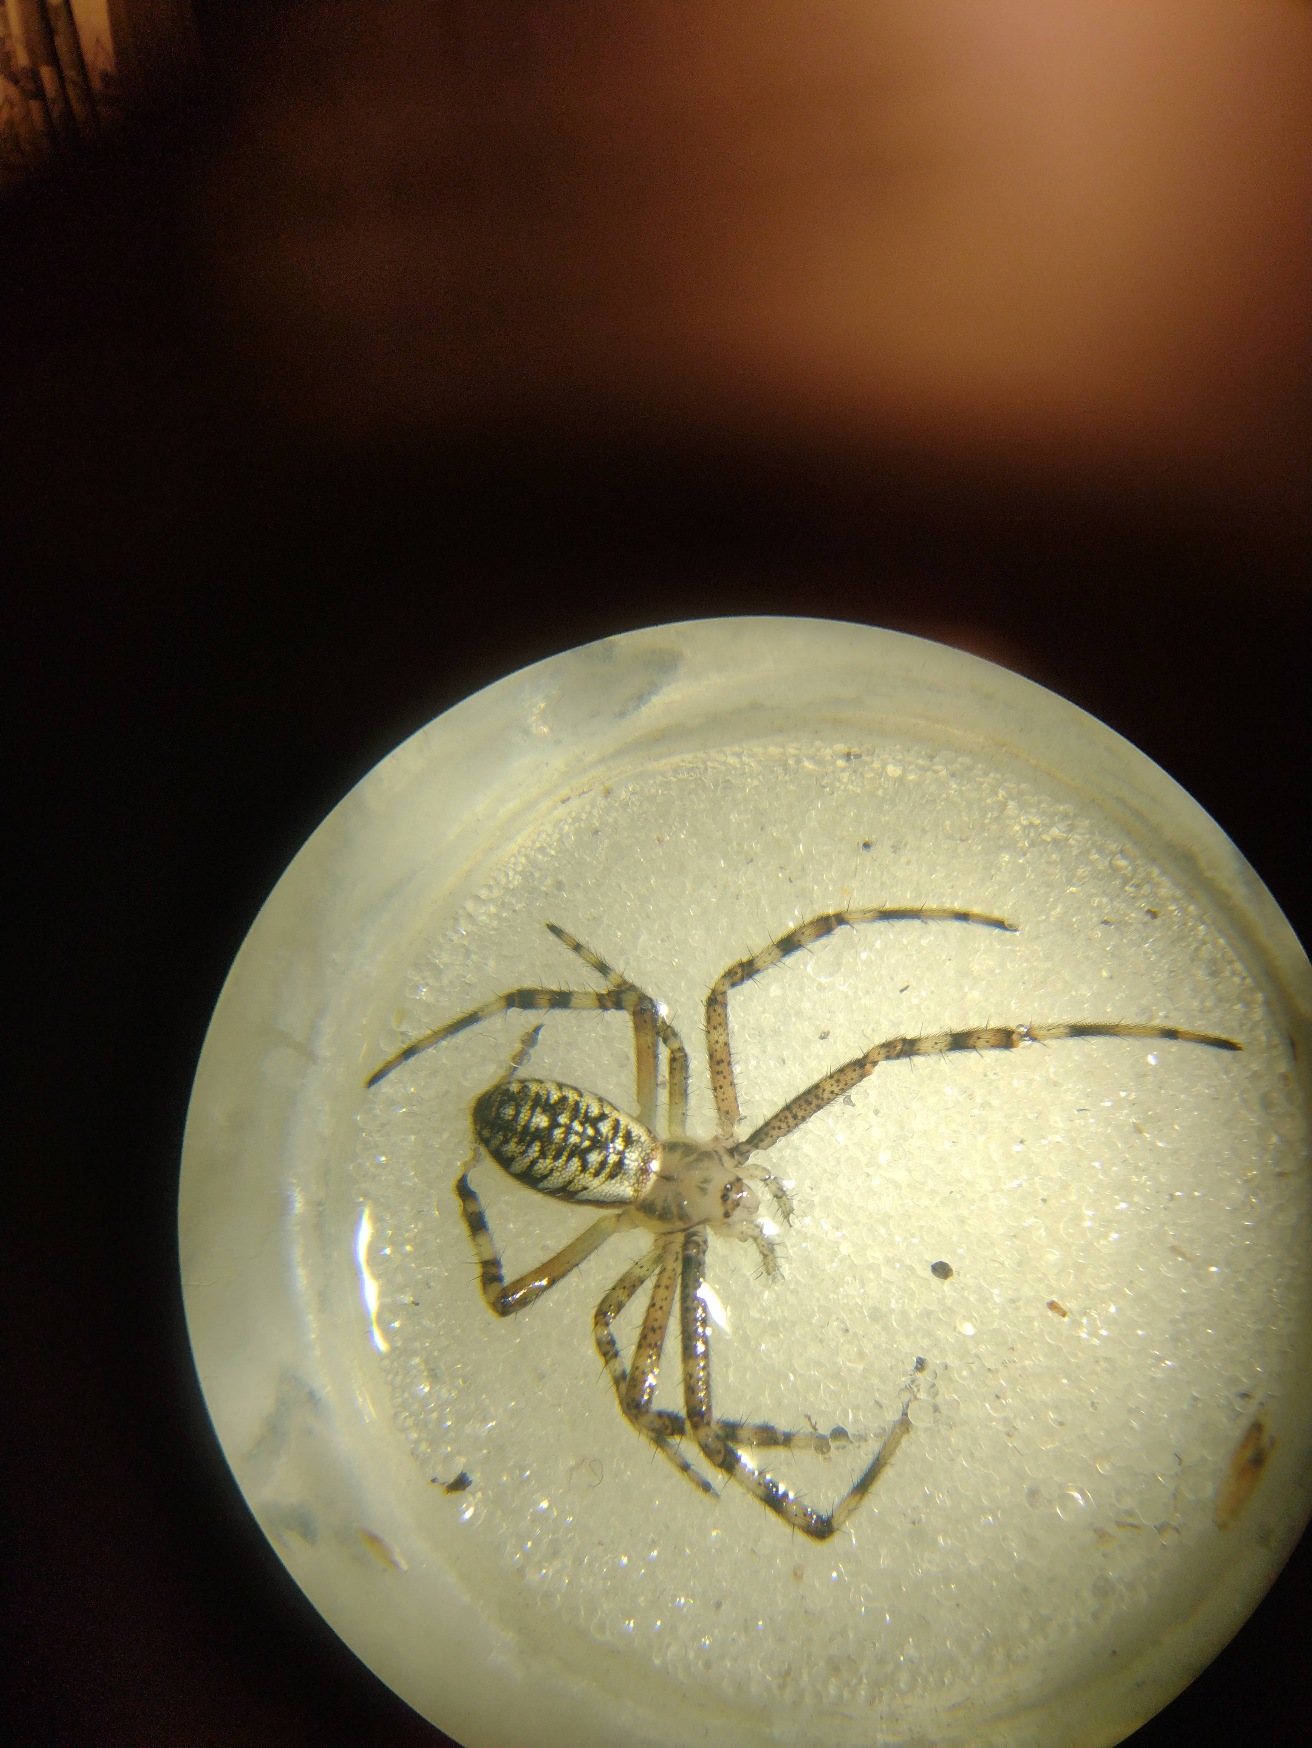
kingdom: Animalia
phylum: Arthropoda
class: Arachnida
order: Araneae
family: Araneidae
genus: Argiope
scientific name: Argiope bruennichi
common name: Hvepseedderkop
